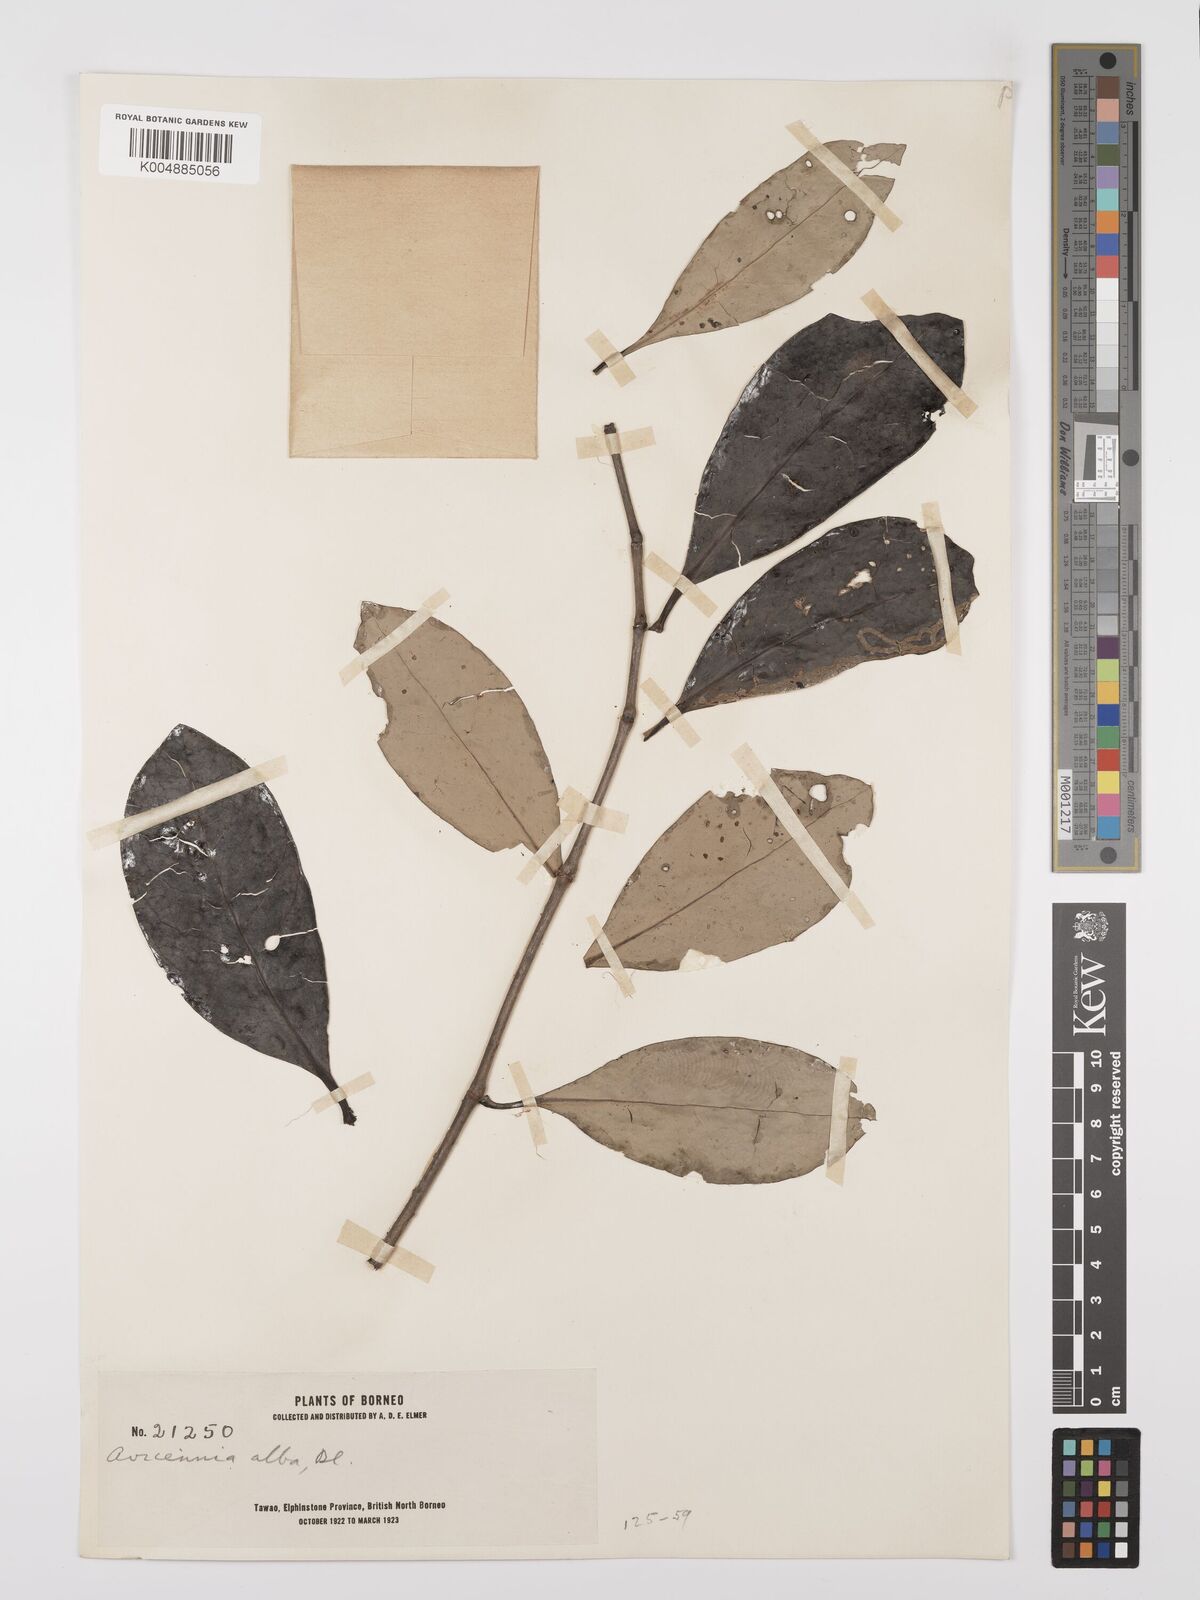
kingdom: Plantae
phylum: Tracheophyta
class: Magnoliopsida
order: Lamiales
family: Acanthaceae
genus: Avicennia
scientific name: Avicennia alba
